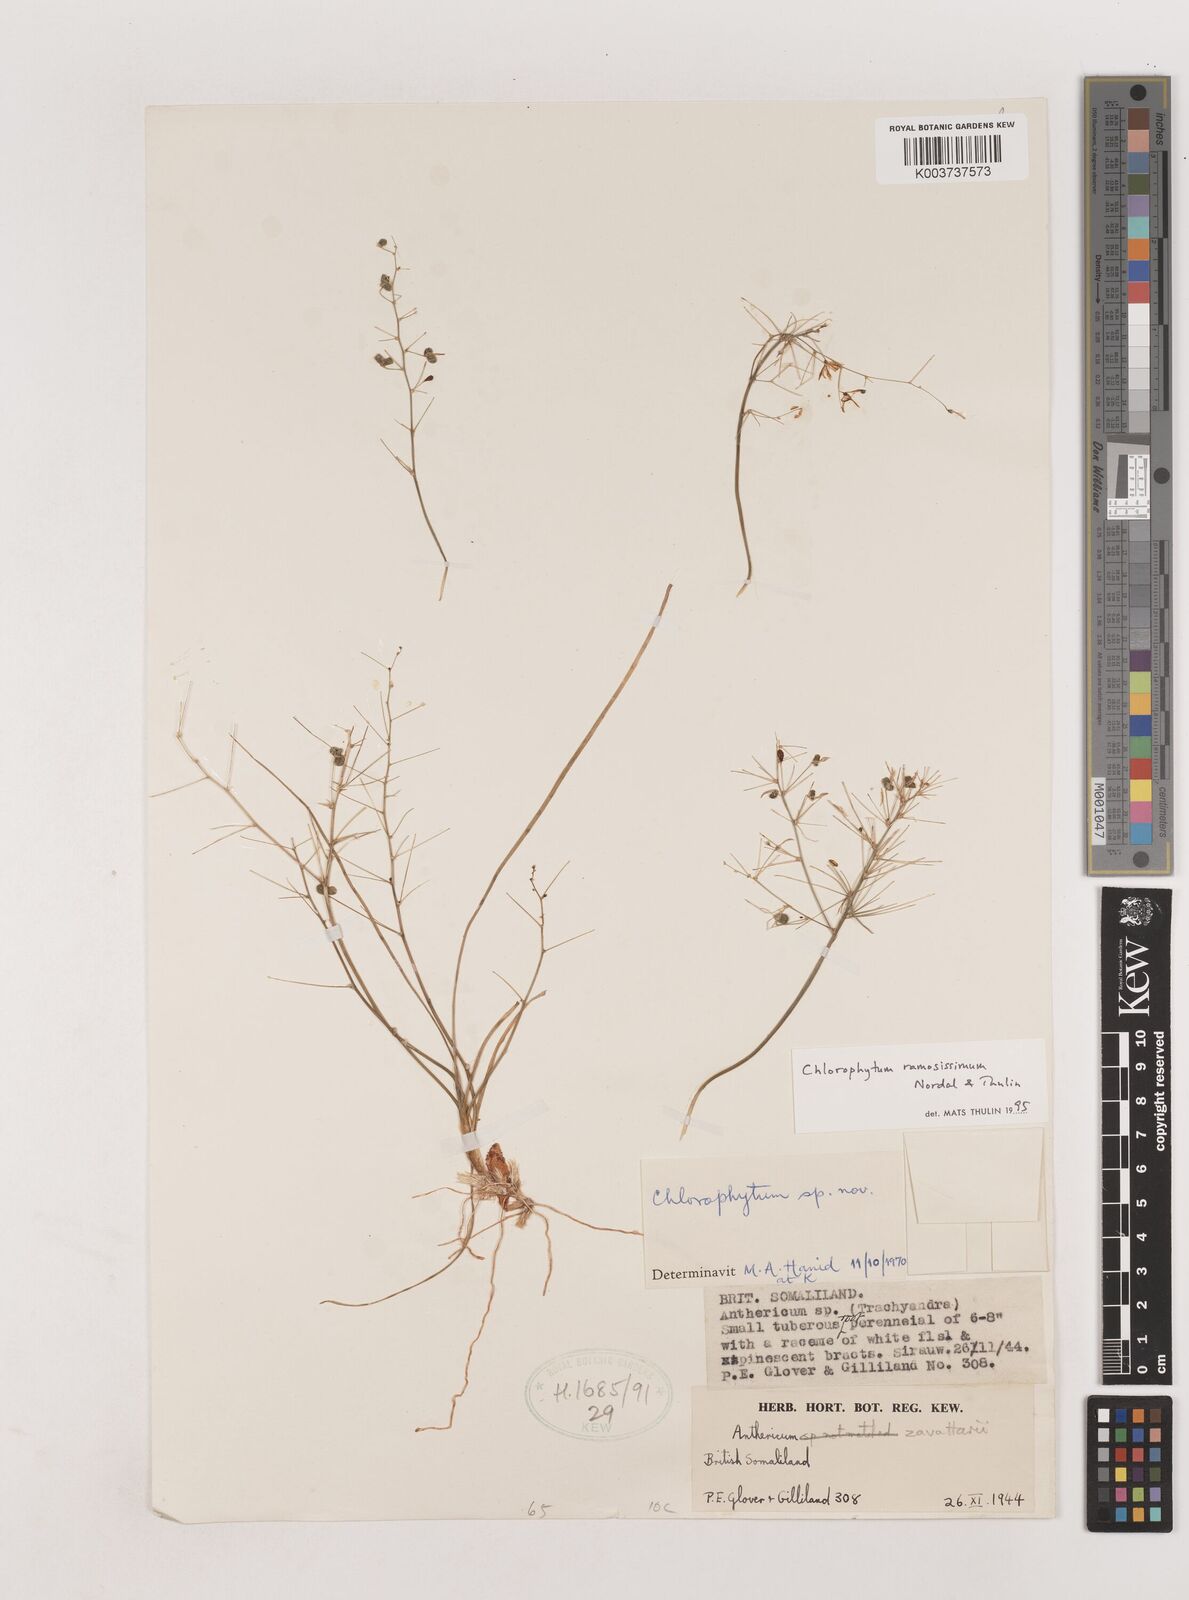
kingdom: Plantae
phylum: Tracheophyta
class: Liliopsida
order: Asparagales
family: Asparagaceae
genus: Chlorophytum
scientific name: Chlorophytum ramosissimum
